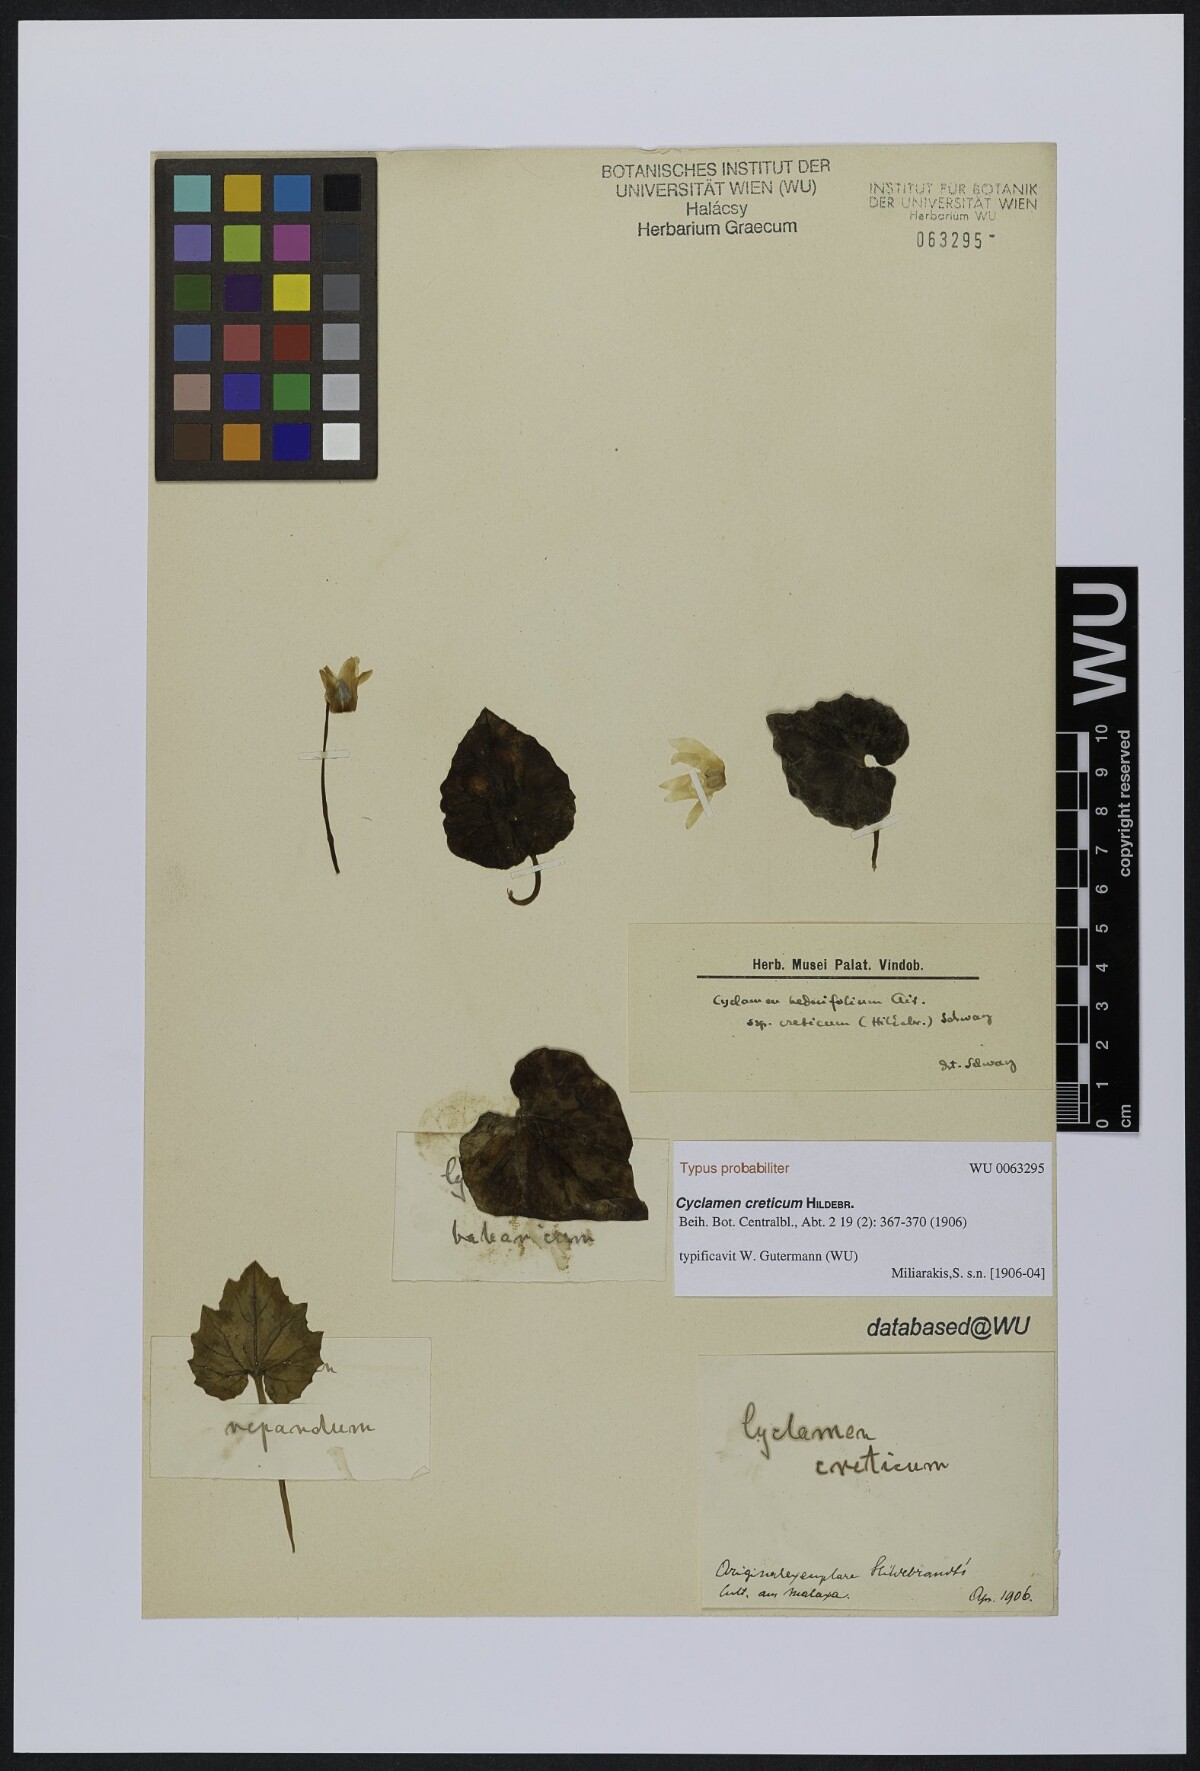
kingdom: Plantae
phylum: Tracheophyta
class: Magnoliopsida
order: Ericales
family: Primulaceae
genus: Cyclamen
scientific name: Cyclamen creticum
